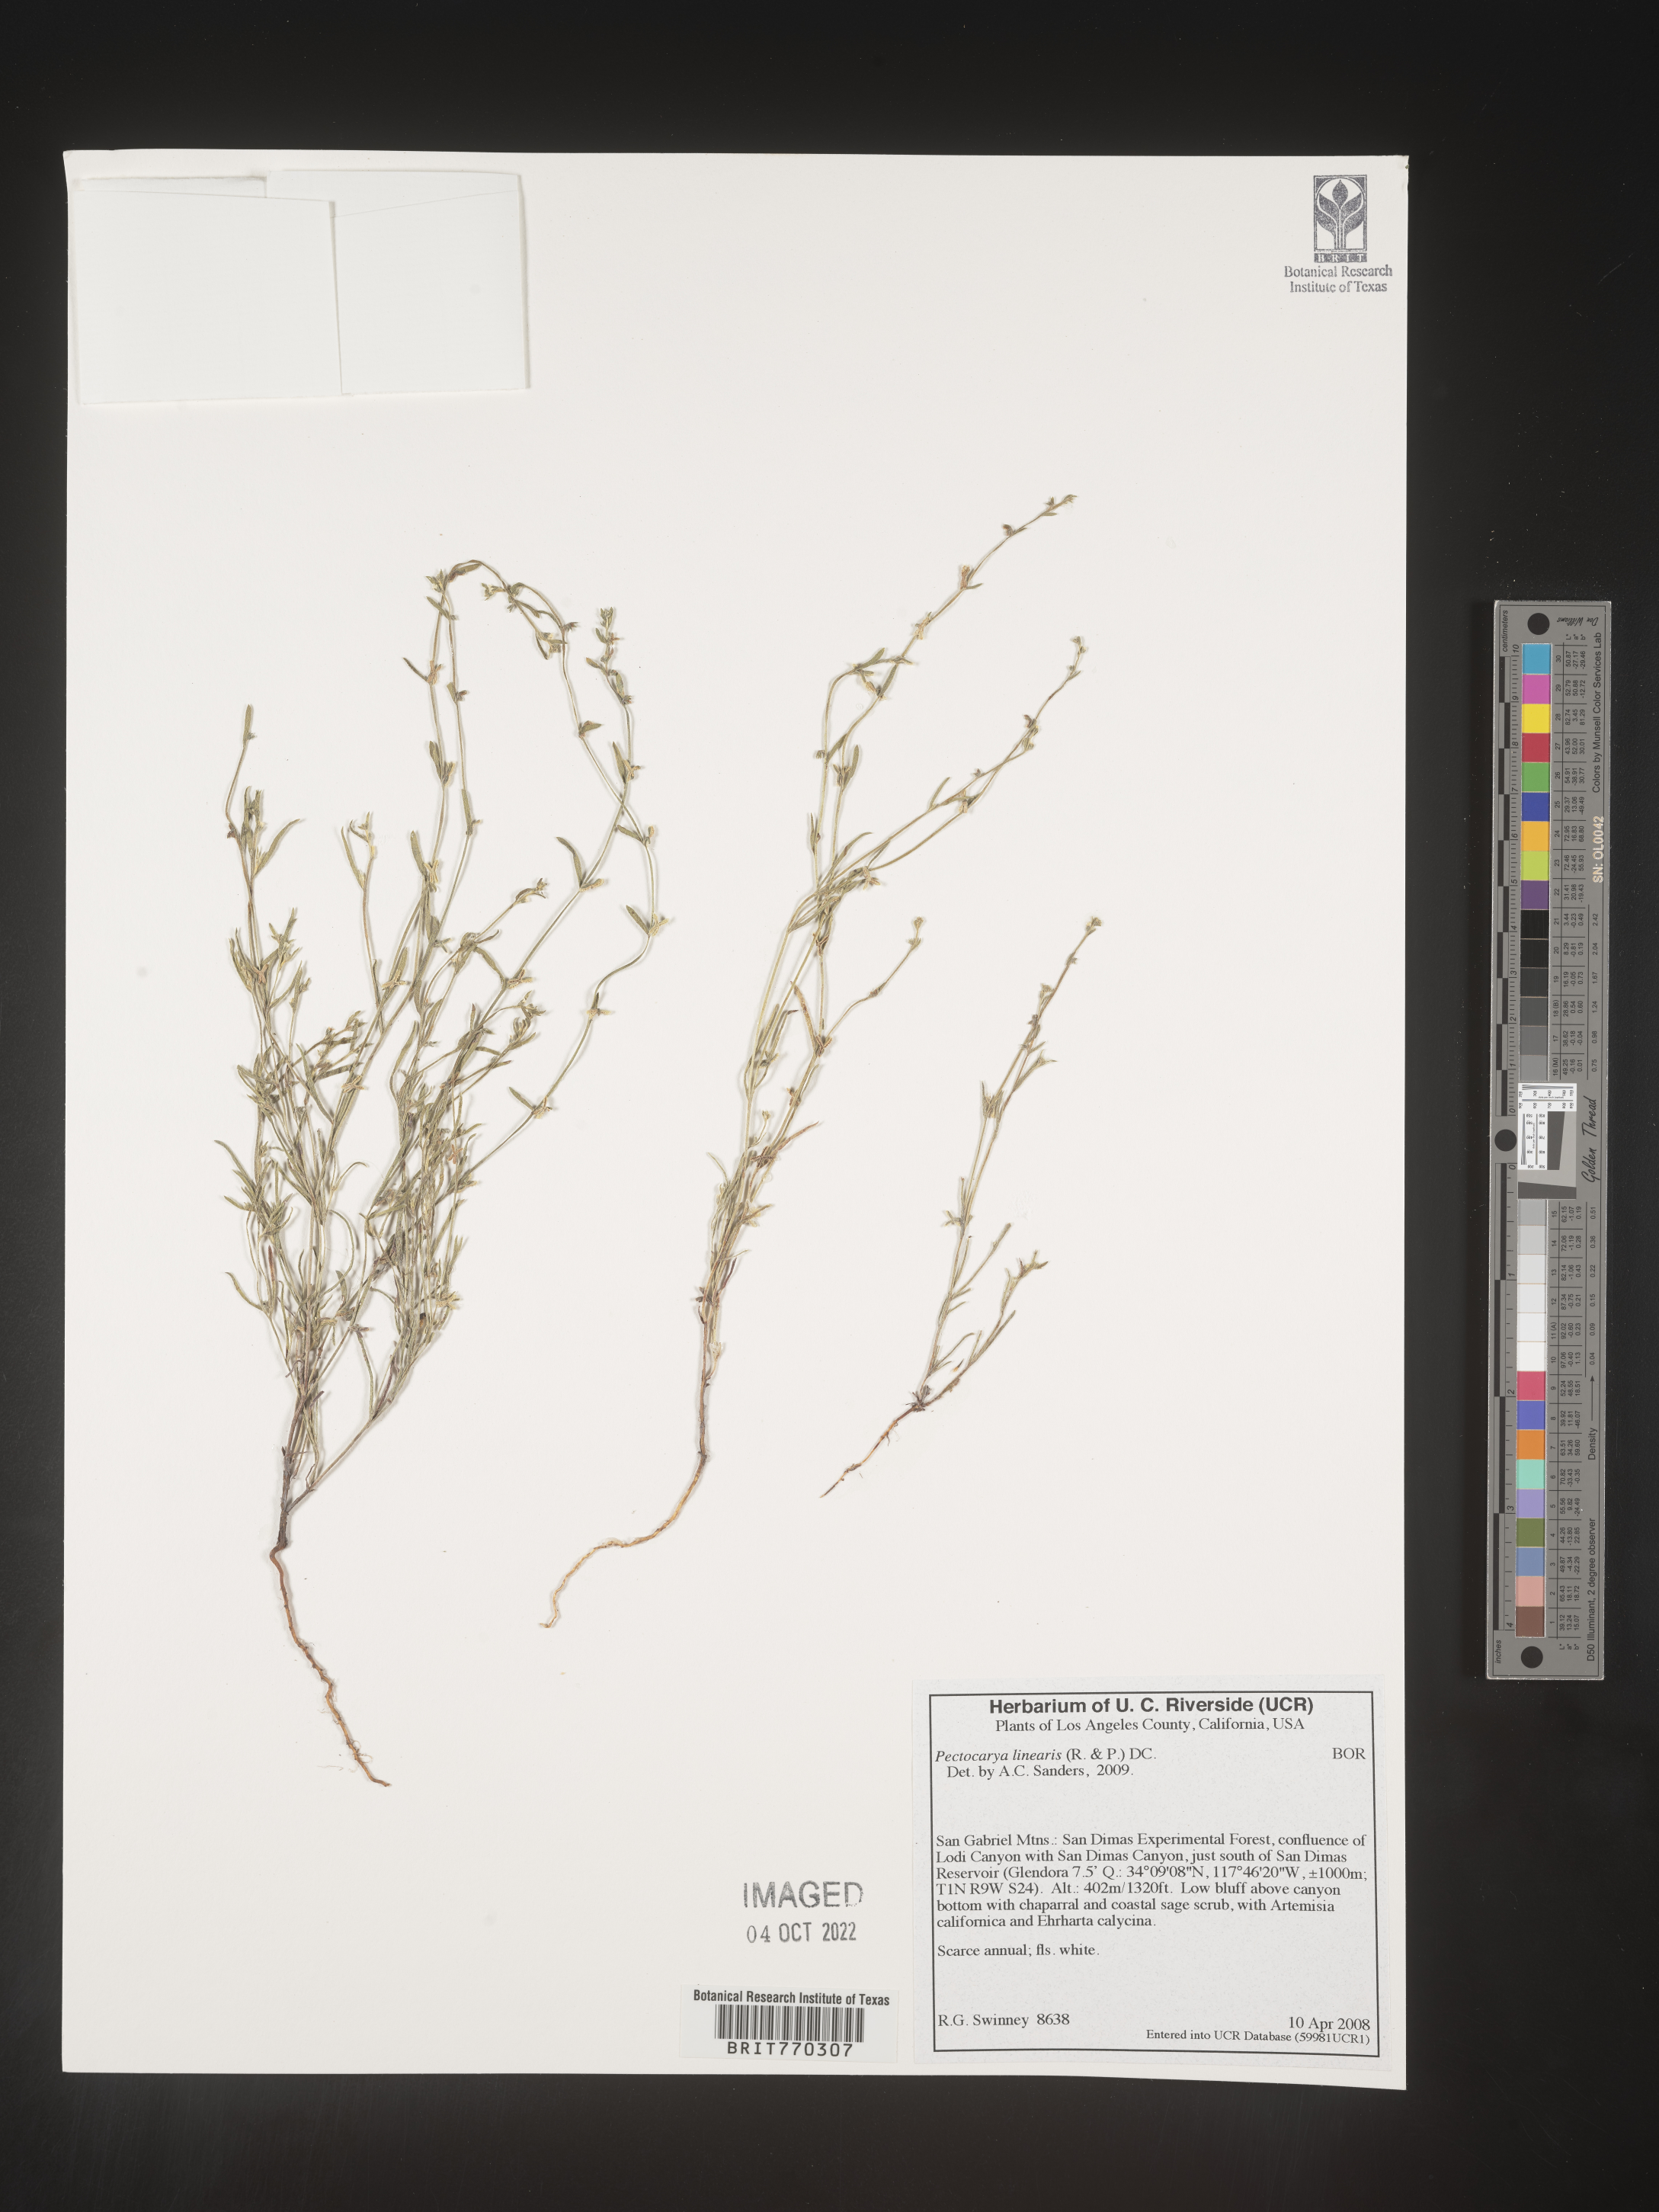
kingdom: Plantae
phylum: Tracheophyta
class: Magnoliopsida
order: Boraginales
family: Boraginaceae
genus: Pectocarya
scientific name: Pectocarya
